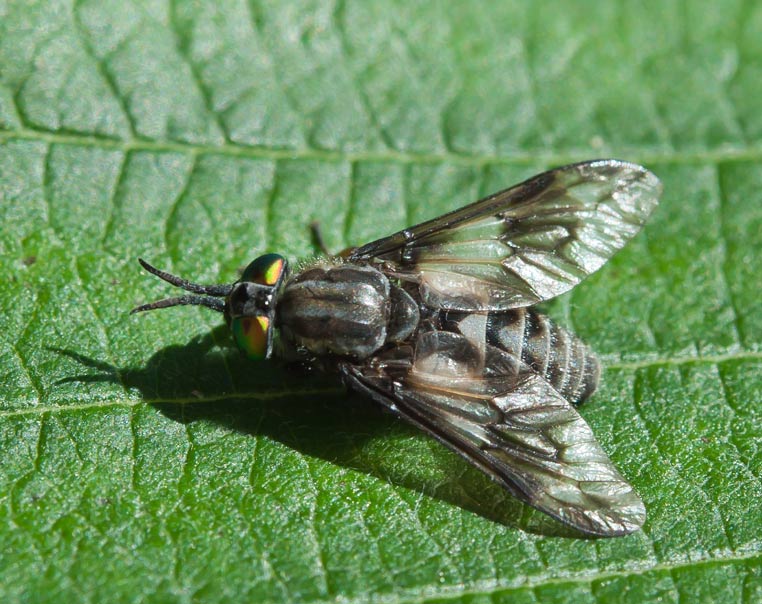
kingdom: Animalia
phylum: Arthropoda
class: Insecta
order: Diptera
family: Tabanidae
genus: Chrysops
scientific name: Chrysops relictus
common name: Twin-lobed deerfly
